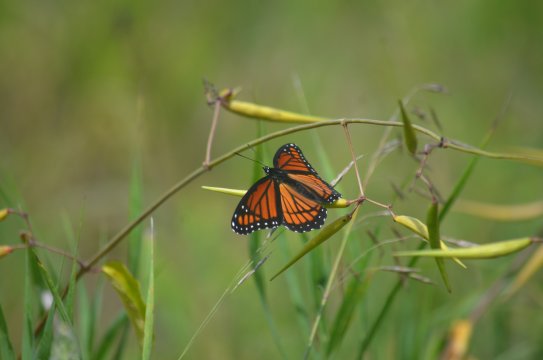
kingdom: Animalia
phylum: Arthropoda
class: Insecta
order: Lepidoptera
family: Nymphalidae
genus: Limenitis
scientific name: Limenitis archippus
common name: Viceroy
